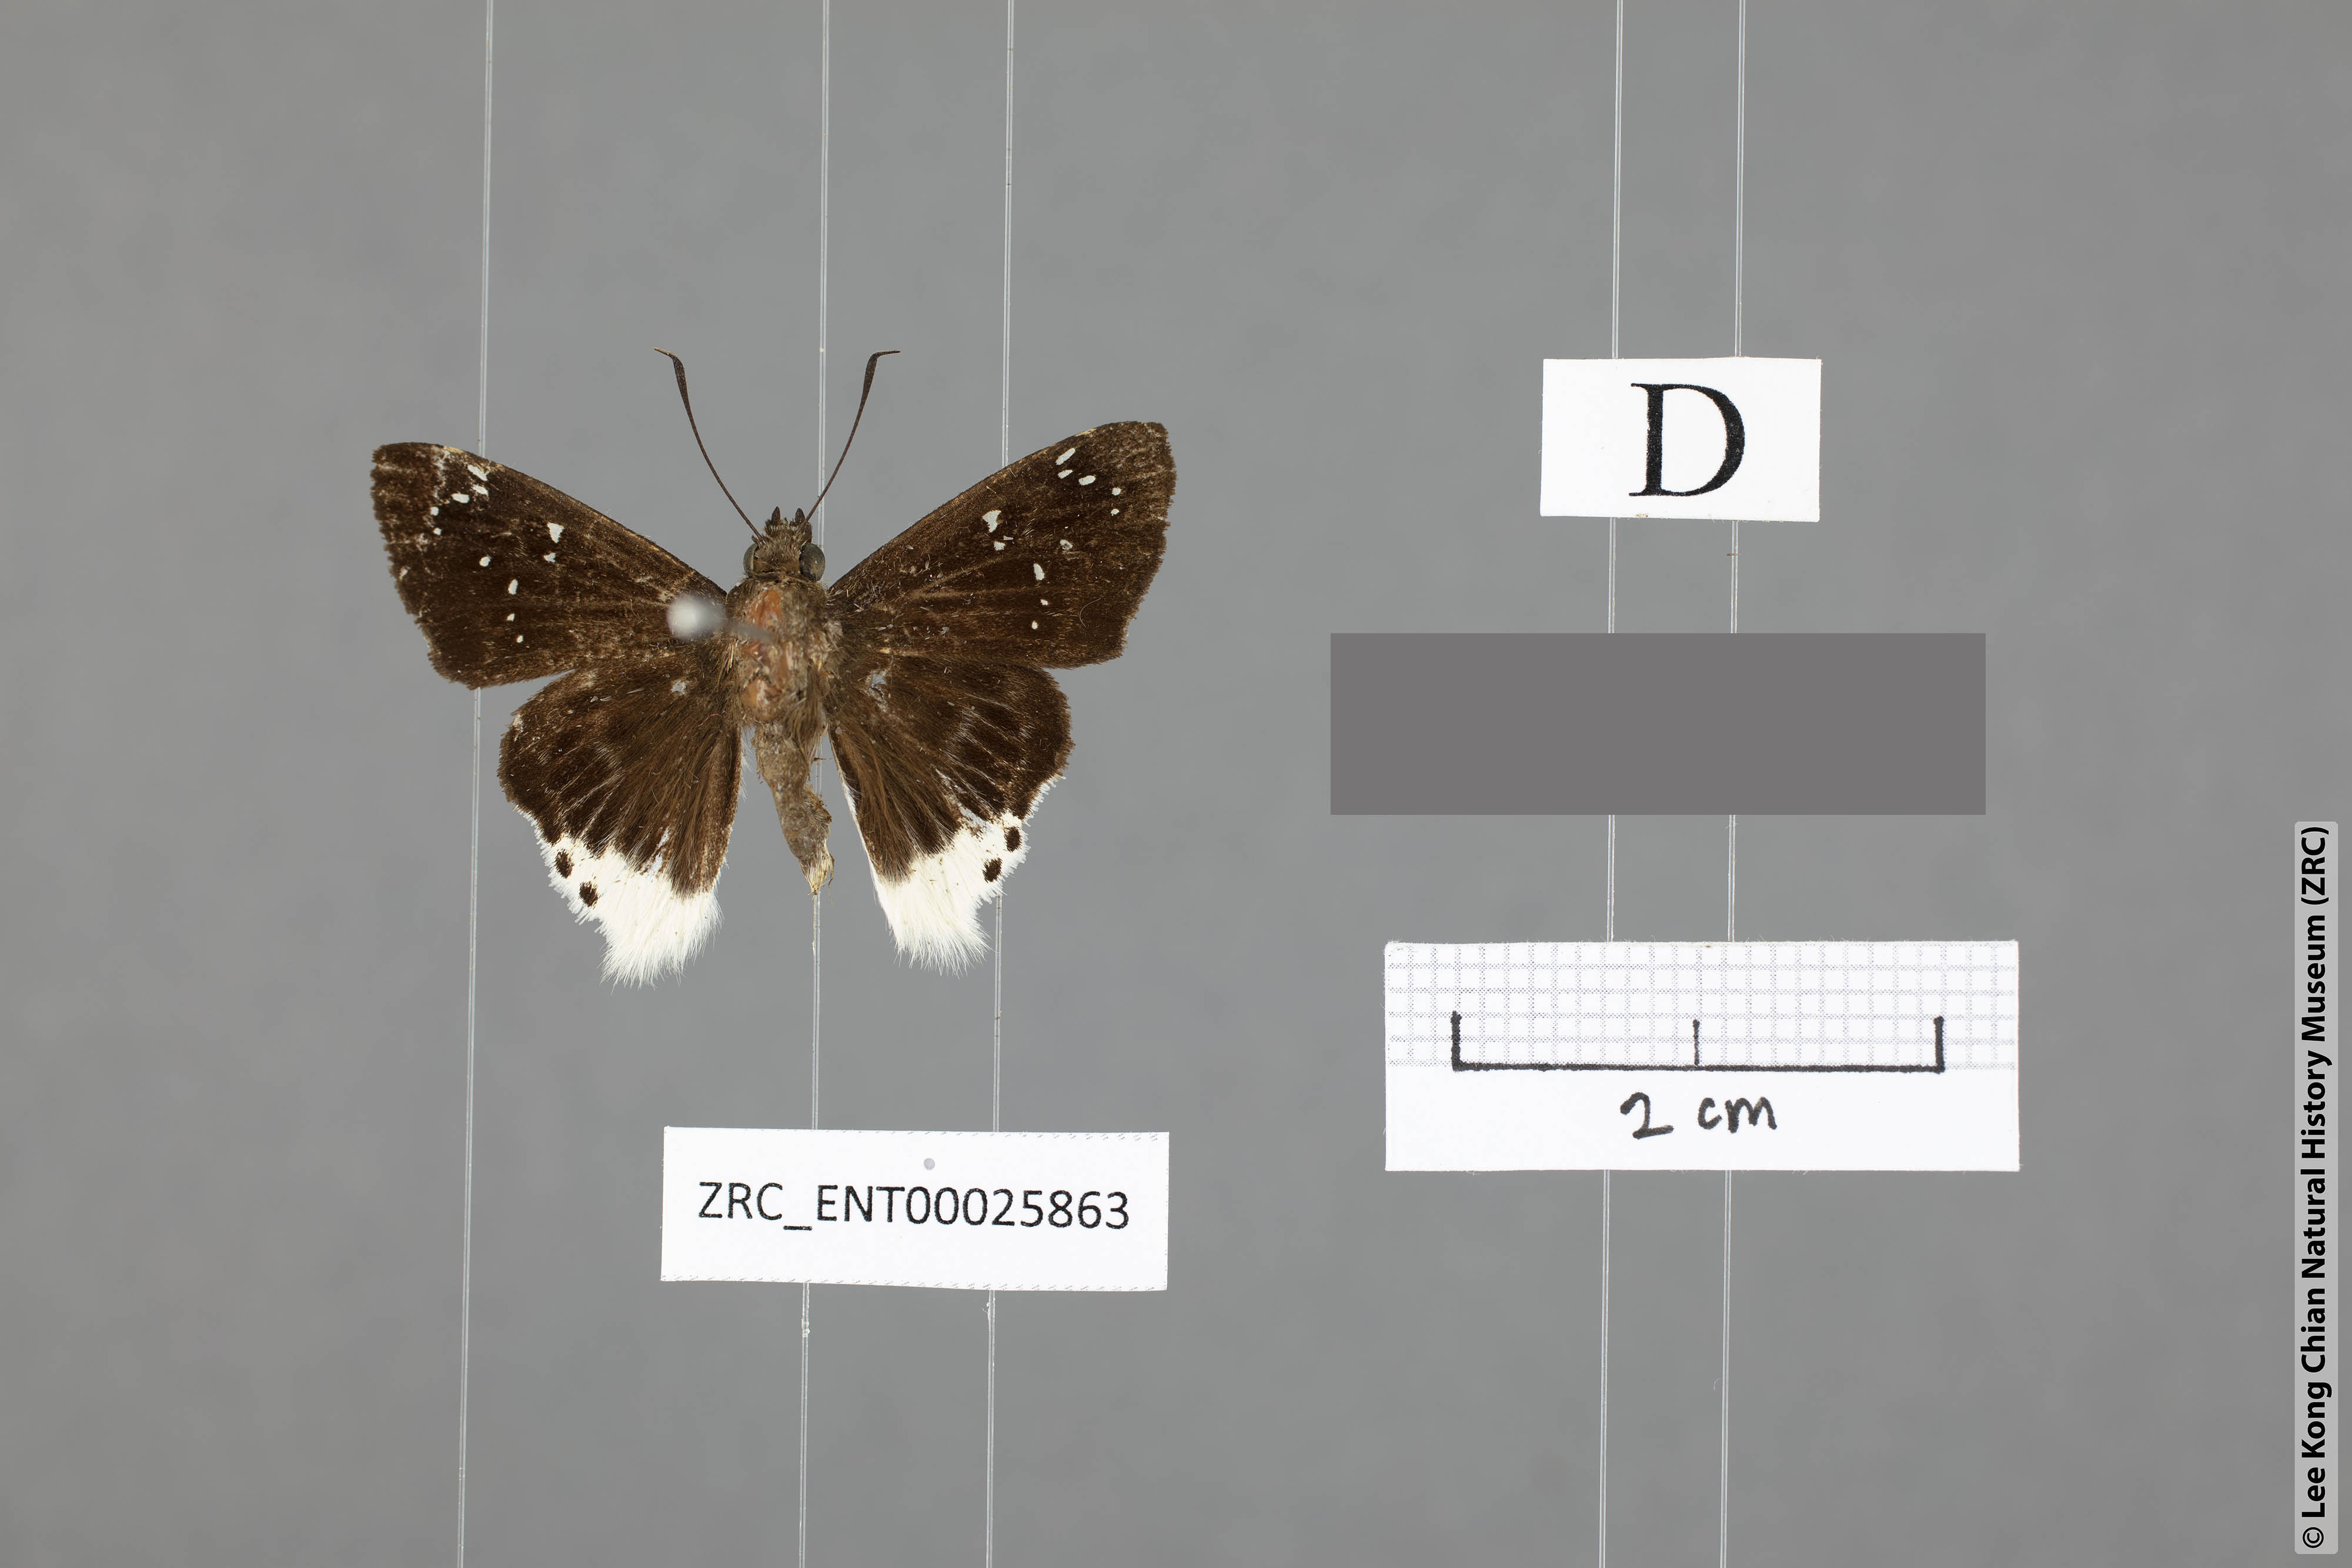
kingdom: Animalia
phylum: Arthropoda
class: Insecta
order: Lepidoptera
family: Hesperiidae
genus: Darpa
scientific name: Darpa striata
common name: Striated angle
